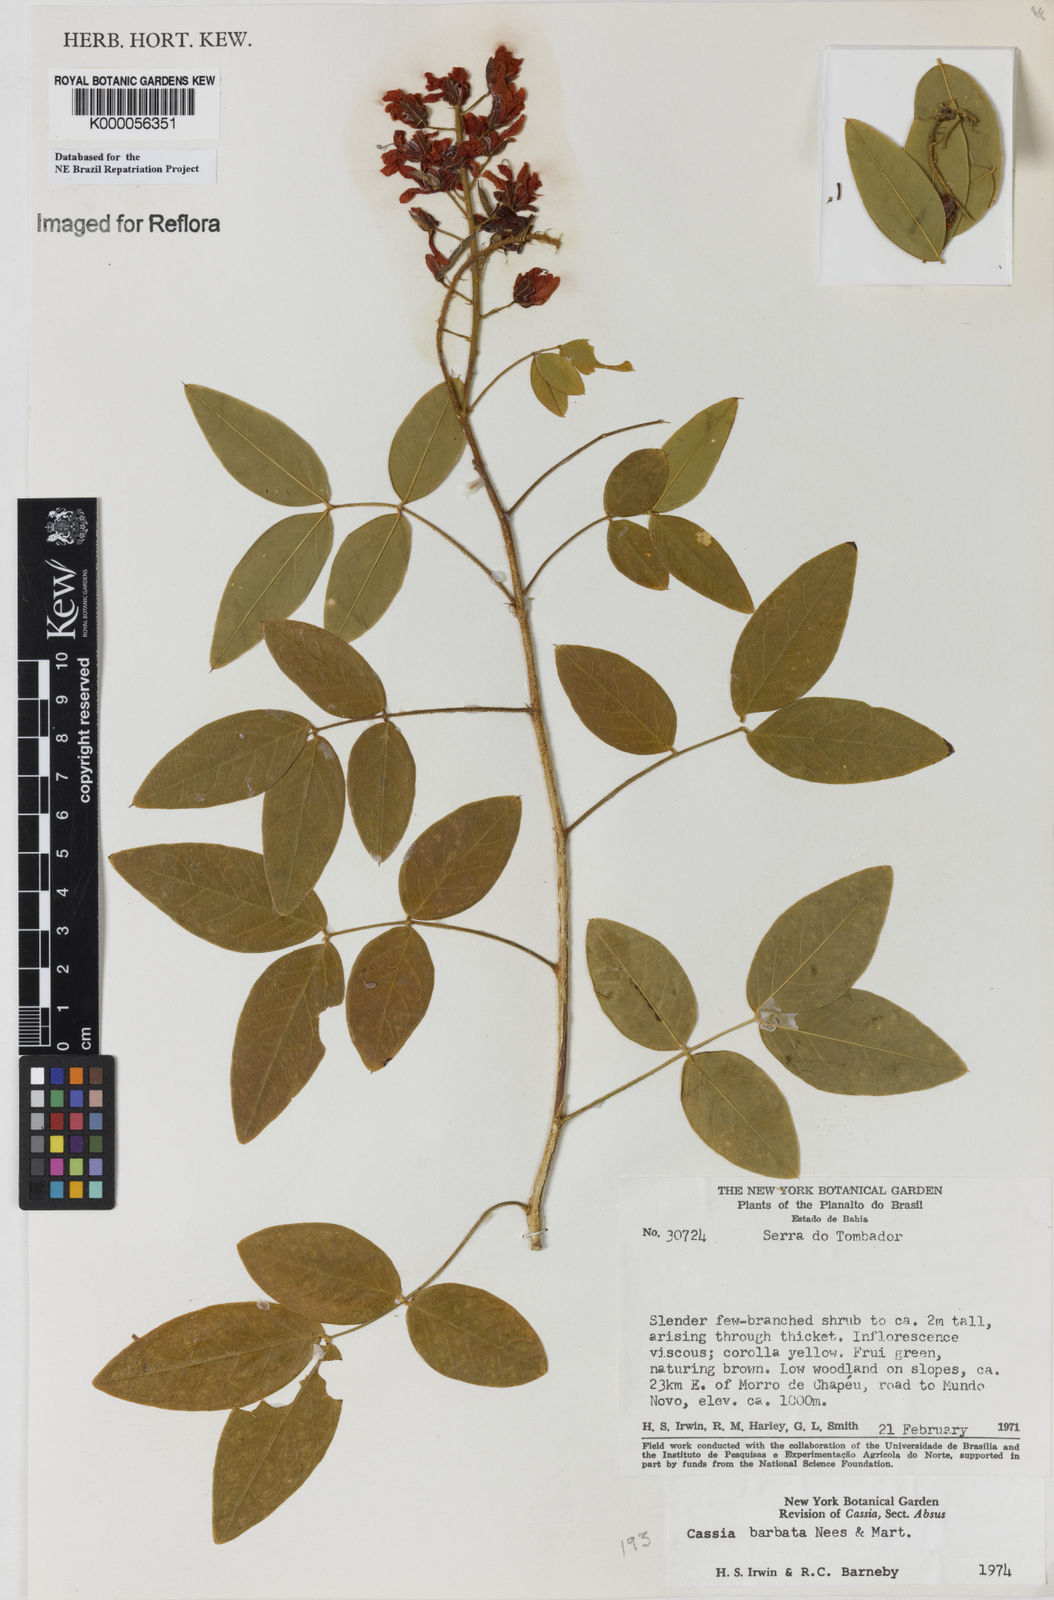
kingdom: Plantae
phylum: Tracheophyta
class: Magnoliopsida
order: Fabales
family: Fabaceae
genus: Chamaecrista
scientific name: Chamaecrista barbata
